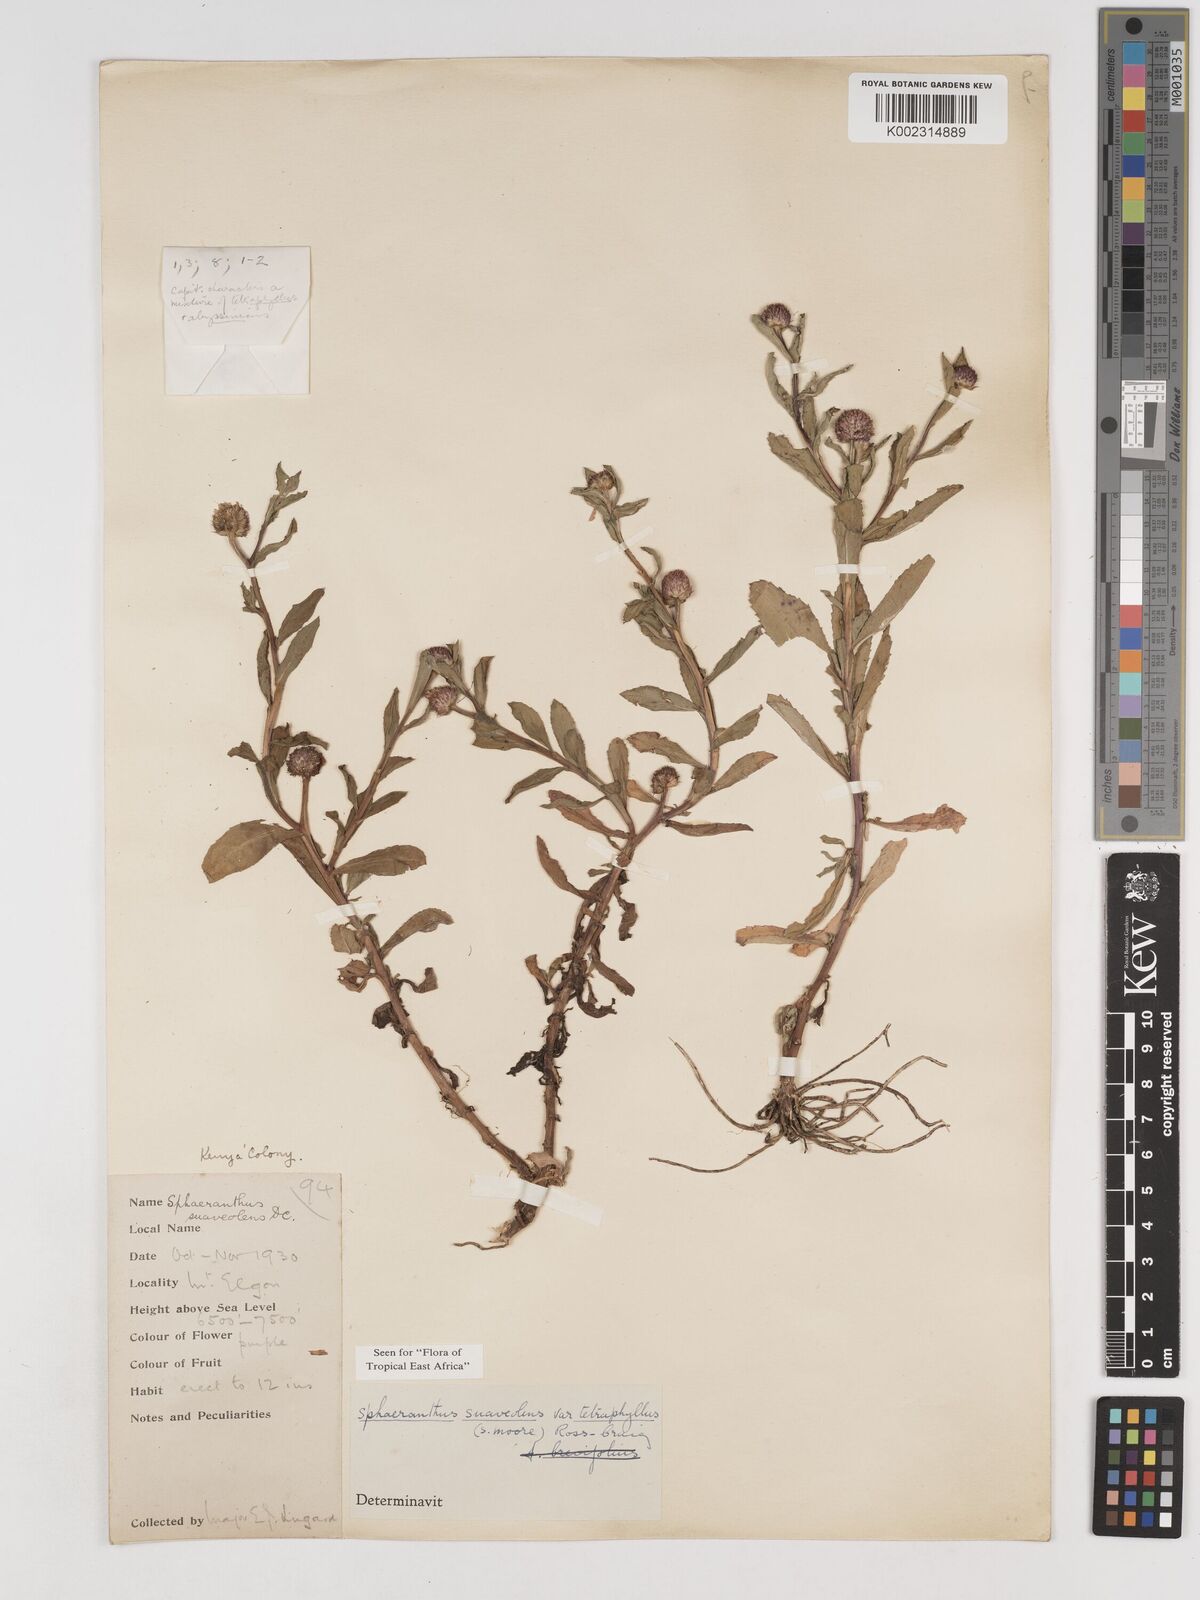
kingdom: Plantae
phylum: Tracheophyta
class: Magnoliopsida
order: Asterales
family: Asteraceae
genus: Sphaeranthus
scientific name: Sphaeranthus suaveolens
